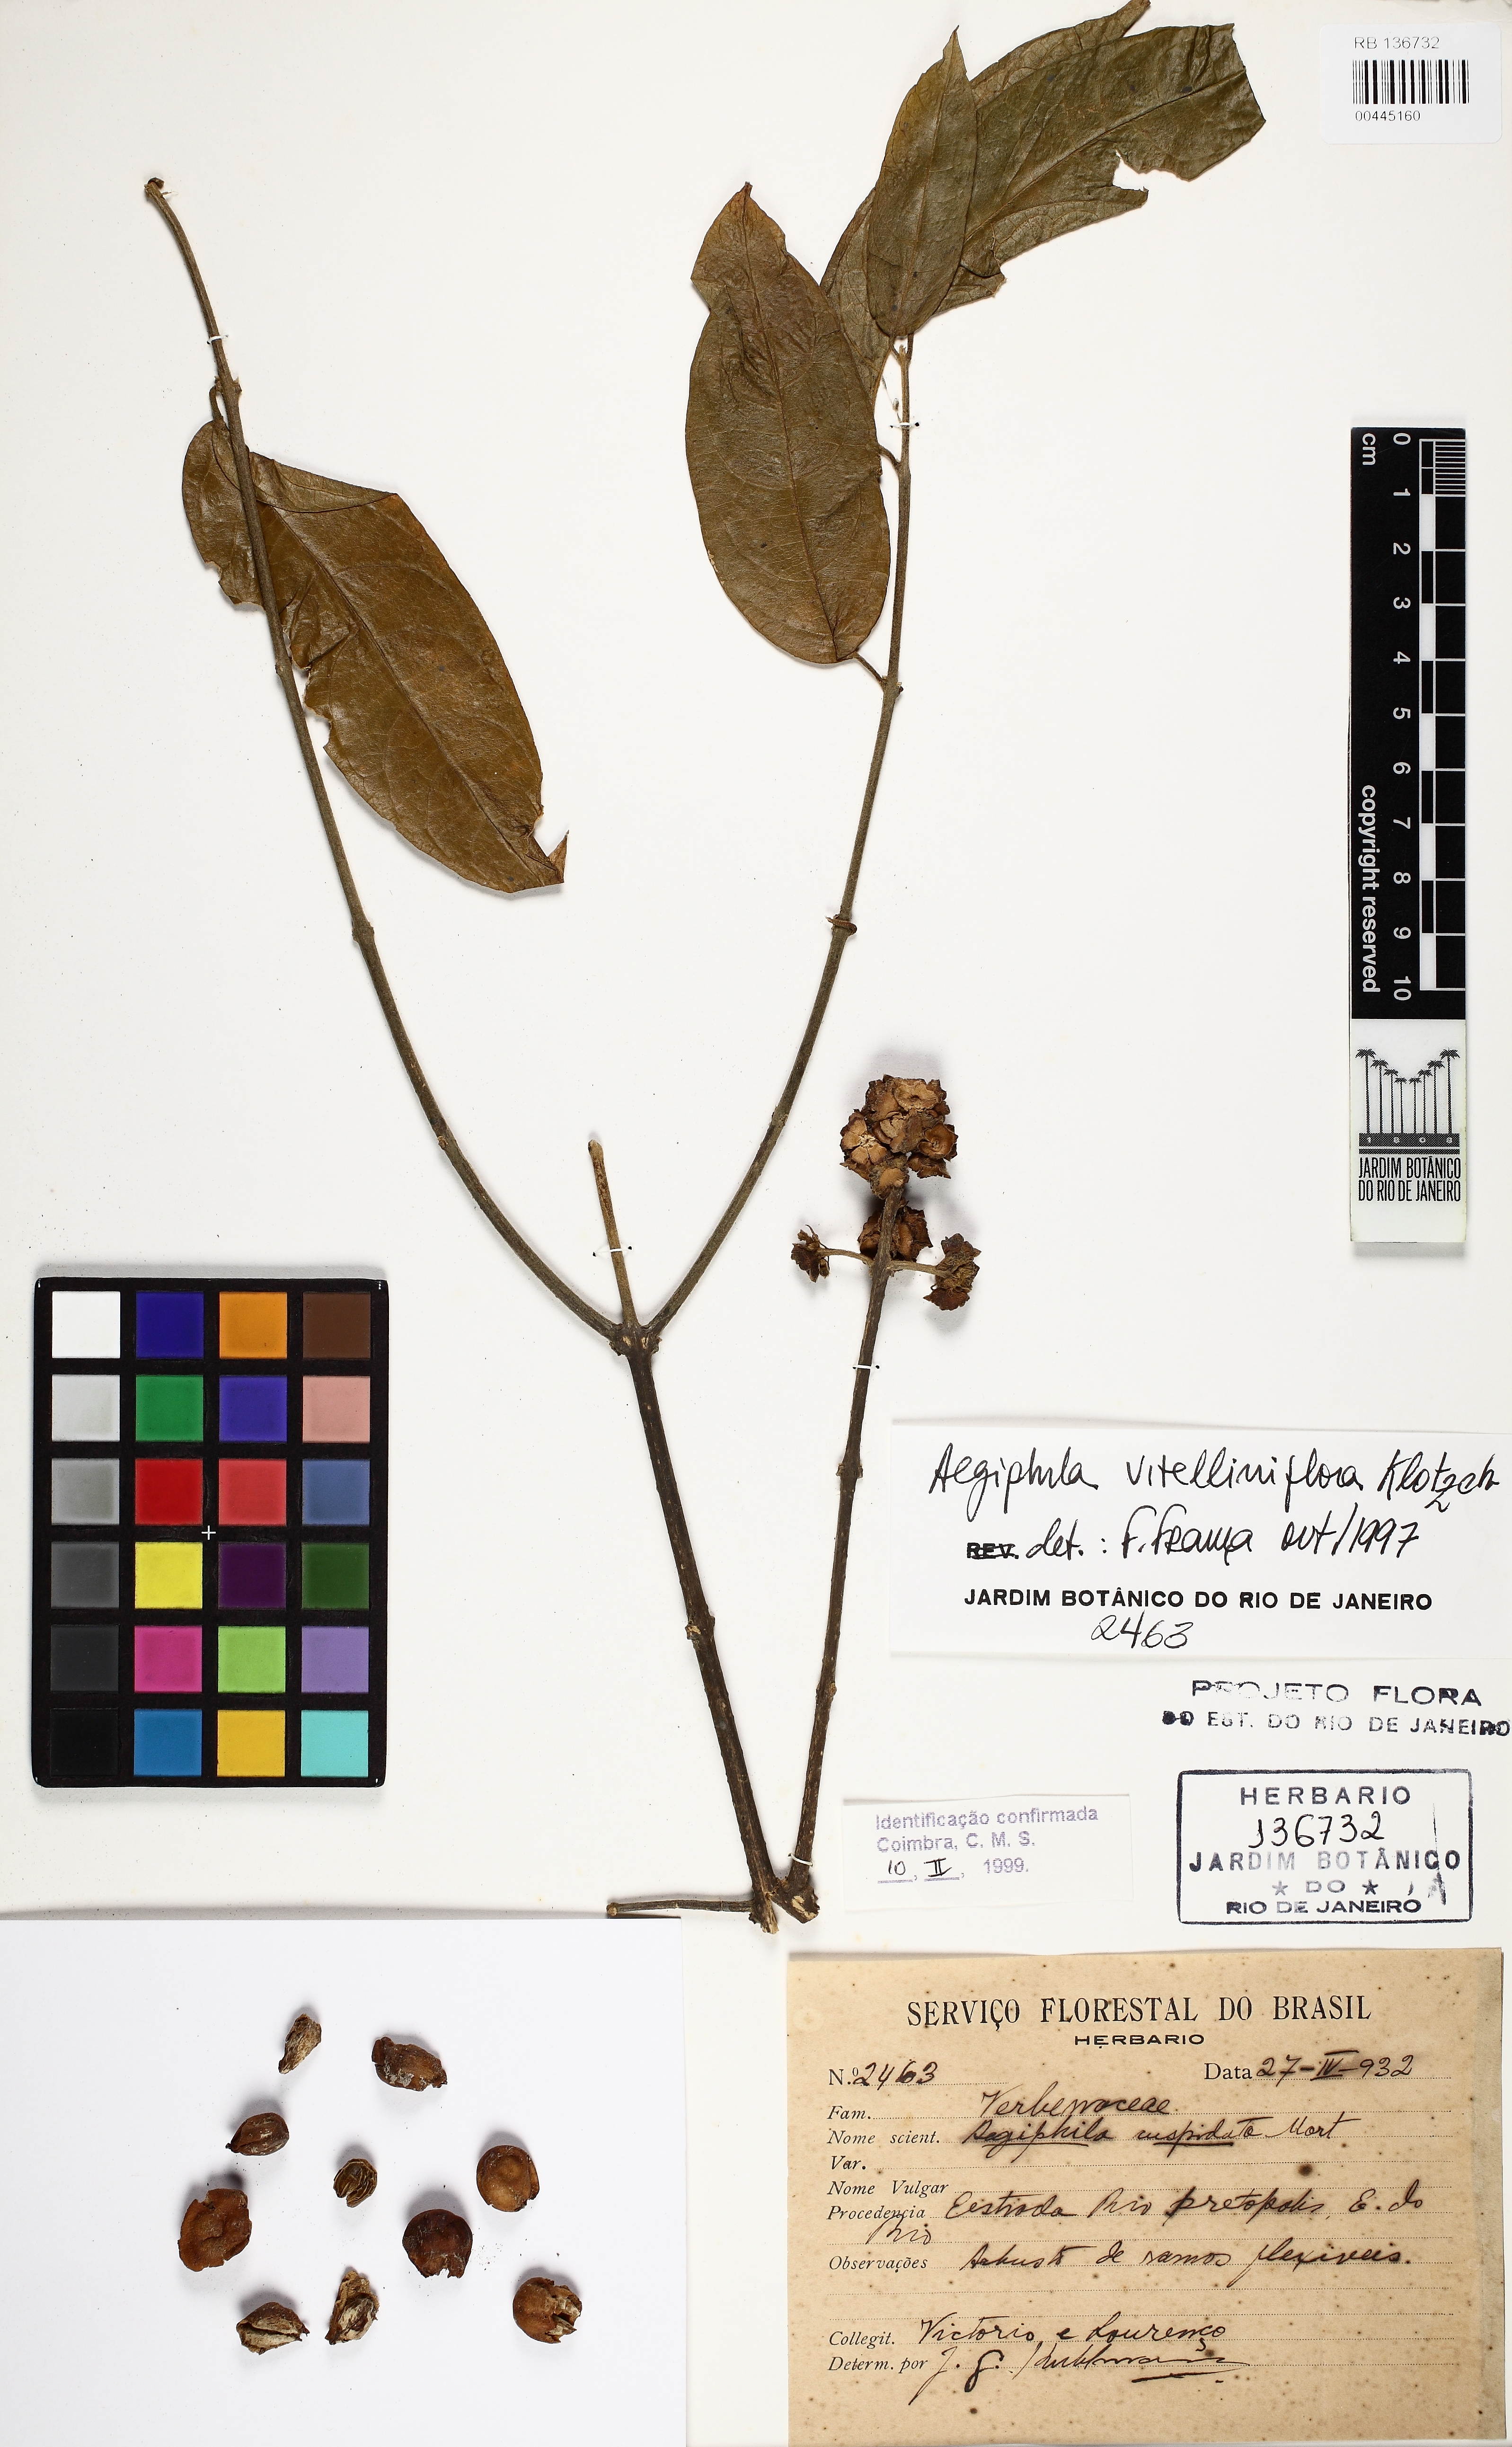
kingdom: Plantae
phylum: Tracheophyta
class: Magnoliopsida
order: Lamiales
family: Lamiaceae
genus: Aegiphila
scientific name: Aegiphila vitelliniflora
